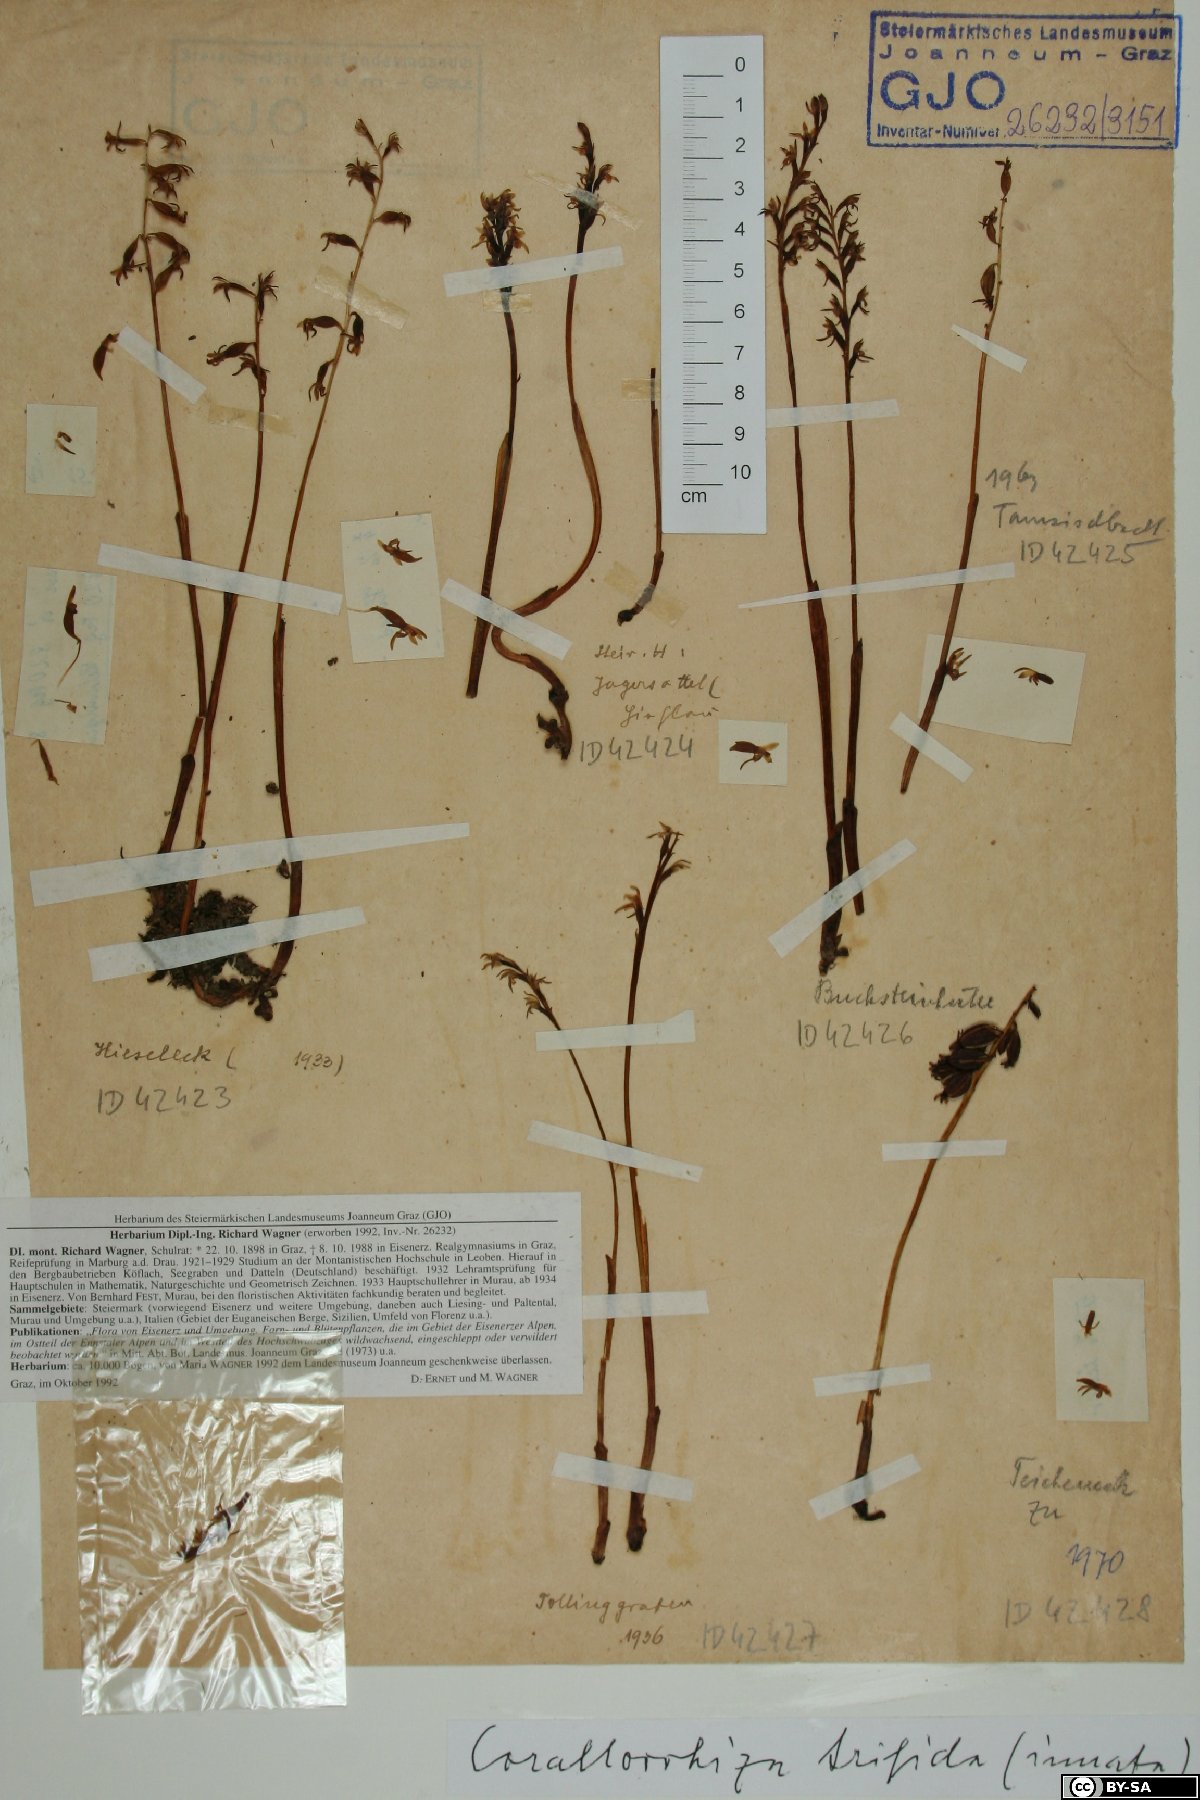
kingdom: Plantae
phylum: Tracheophyta
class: Liliopsida
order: Asparagales
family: Orchidaceae
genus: Corallorhiza
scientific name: Corallorhiza trifida
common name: Yellow coralroot
